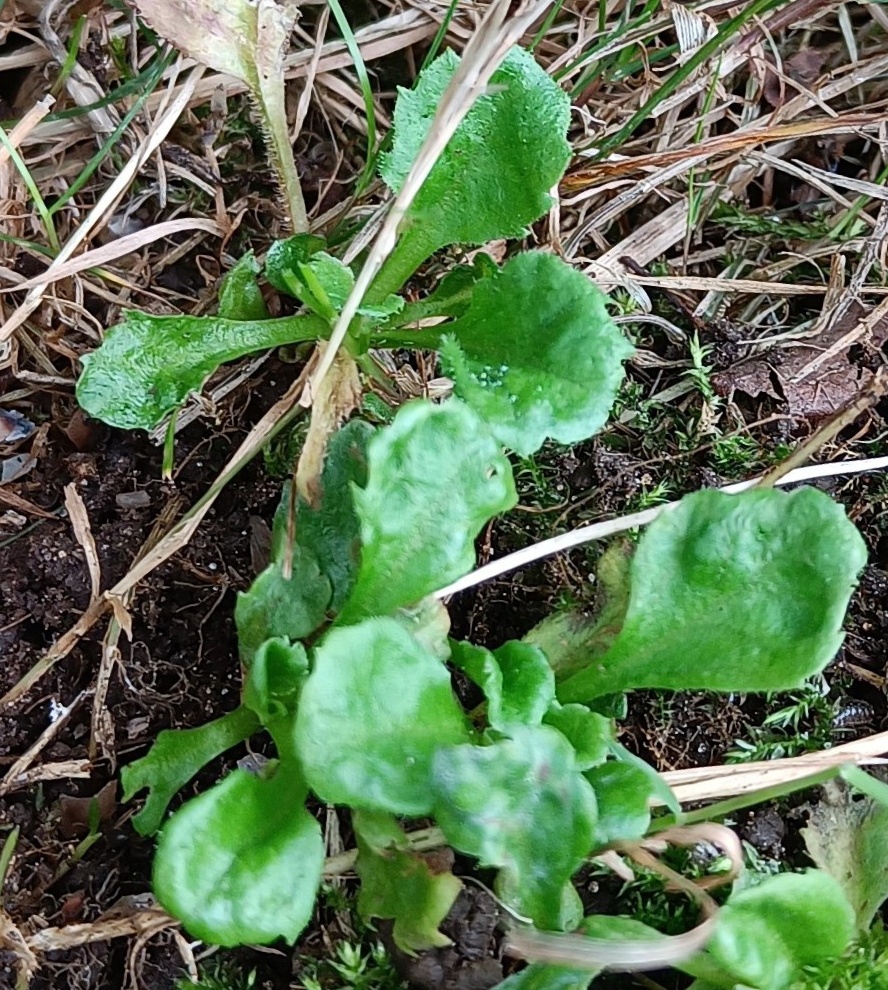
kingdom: Plantae
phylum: Tracheophyta
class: Magnoliopsida
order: Asterales
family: Asteraceae
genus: Bellis
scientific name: Bellis perennis
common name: Tusindfryd
